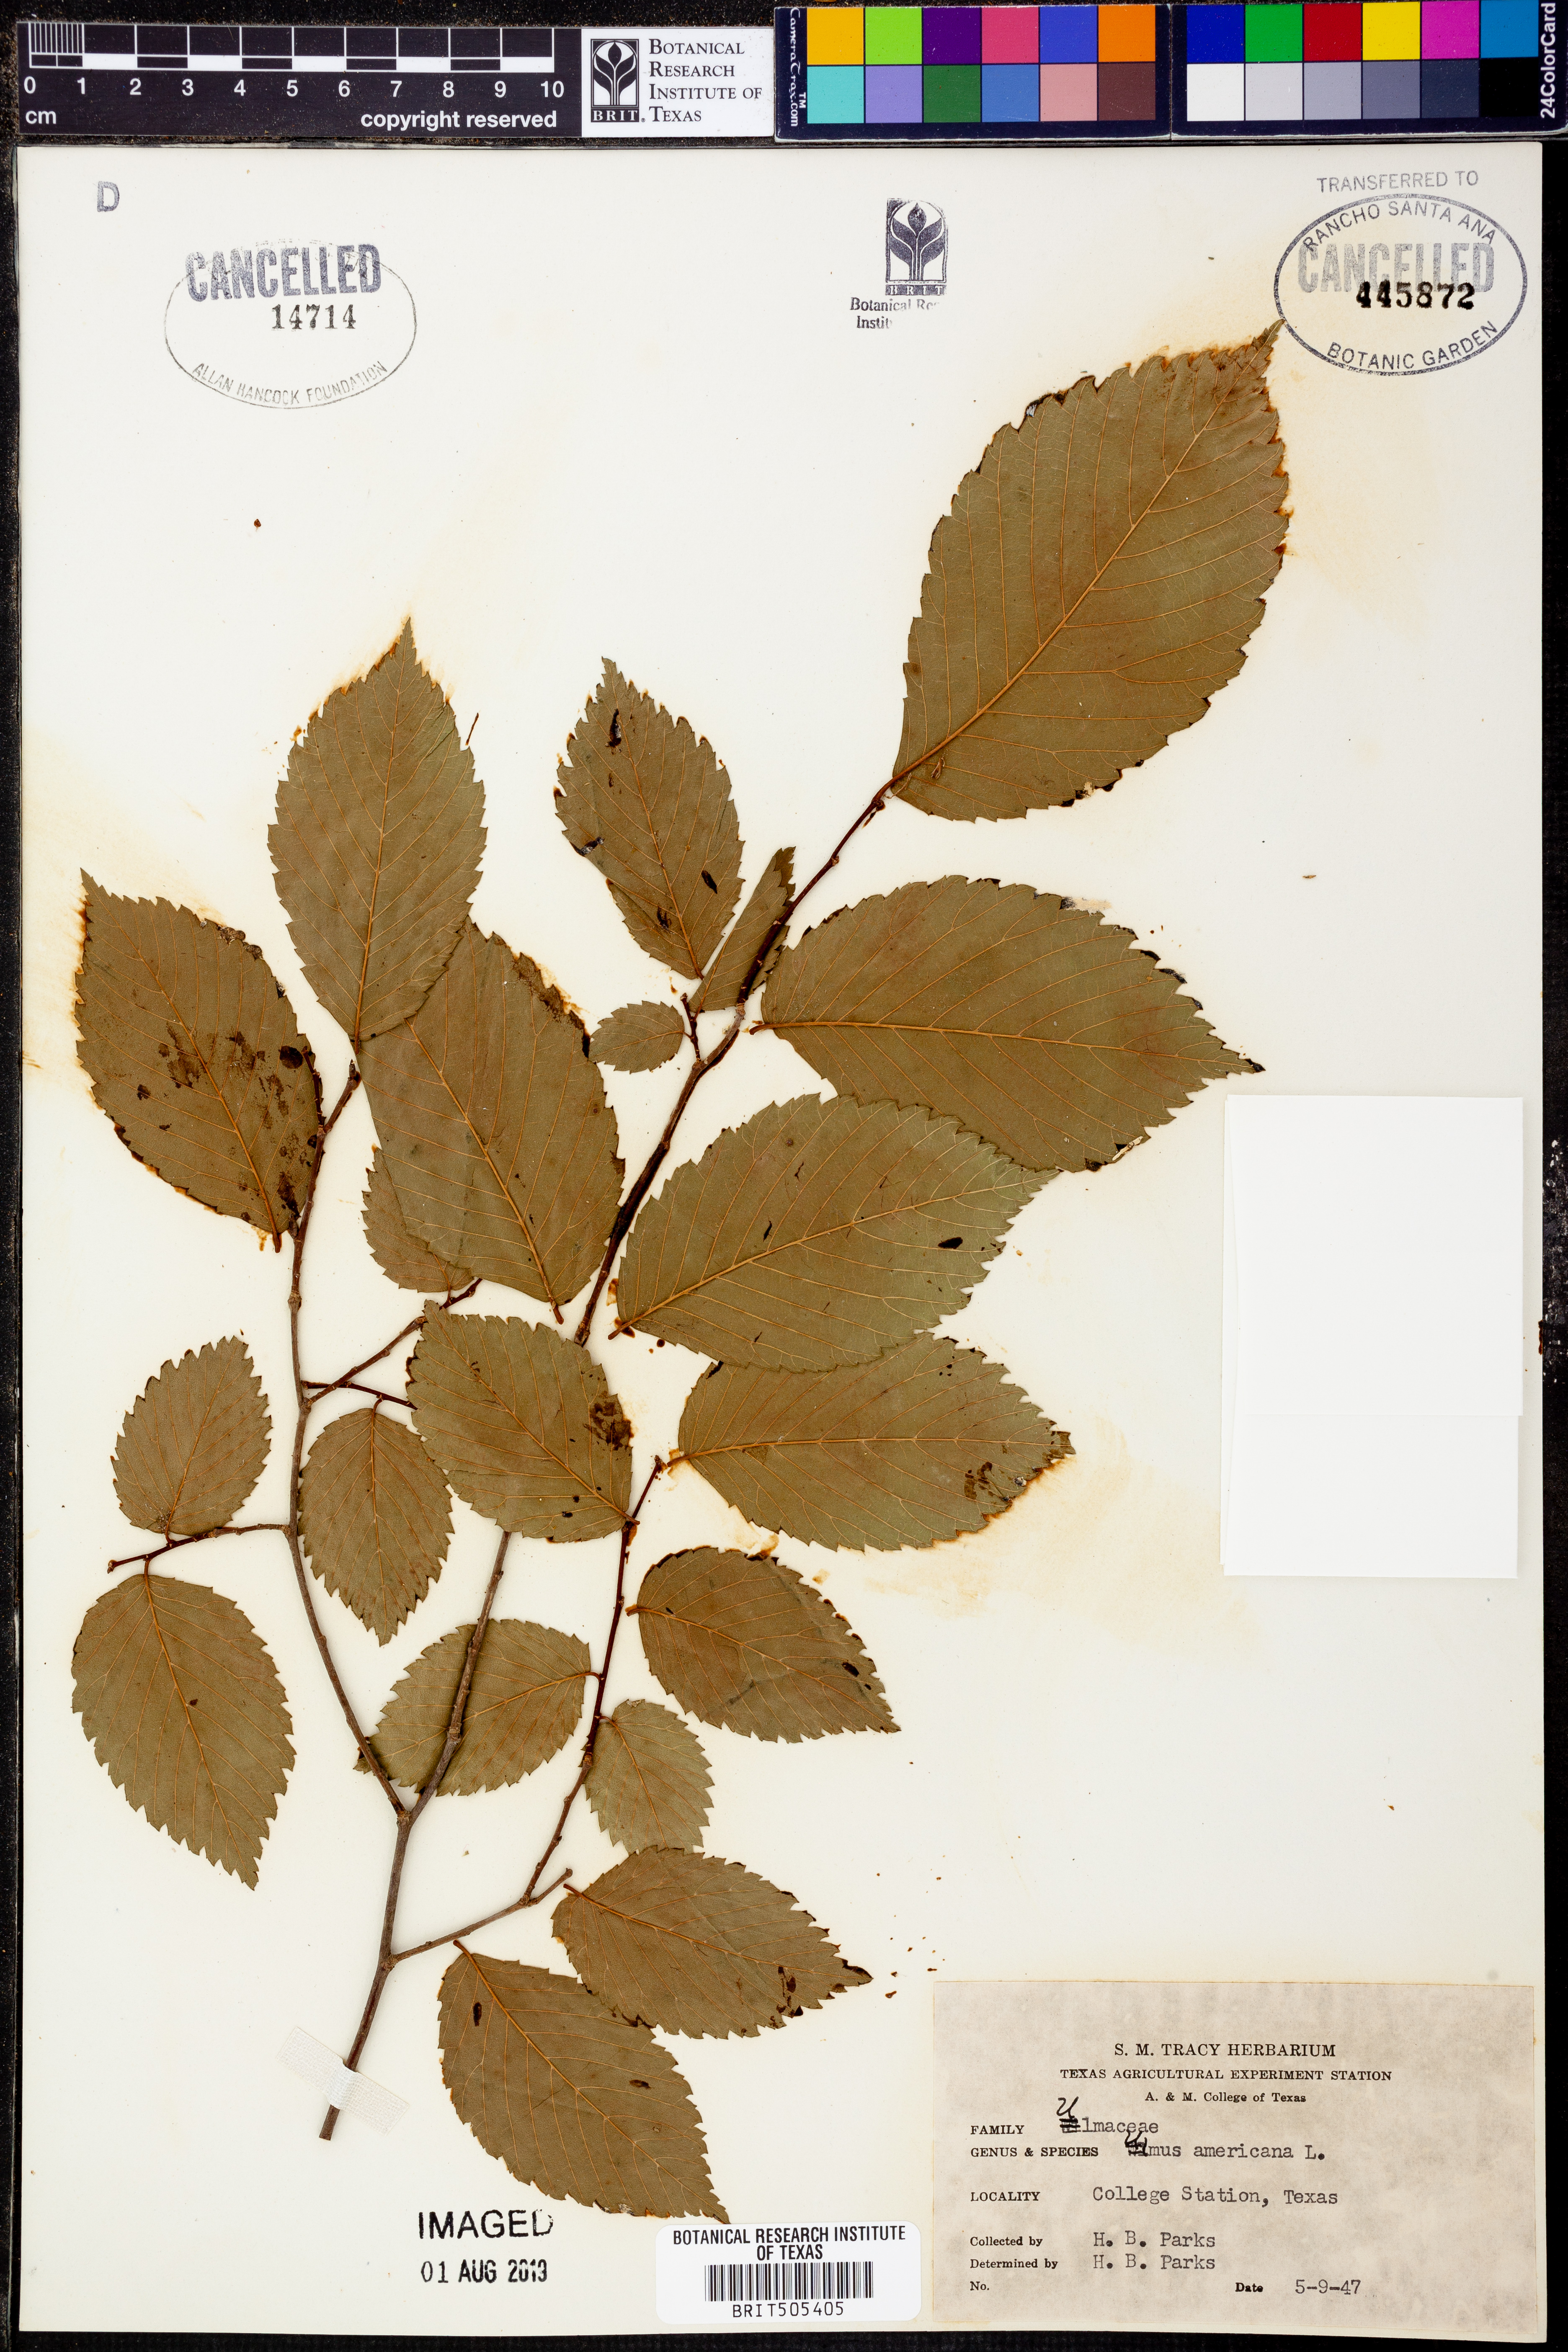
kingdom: Plantae
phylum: Tracheophyta
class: Magnoliopsida
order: Rosales
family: Ulmaceae
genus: Ulmus
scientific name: Ulmus americana
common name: American elm
